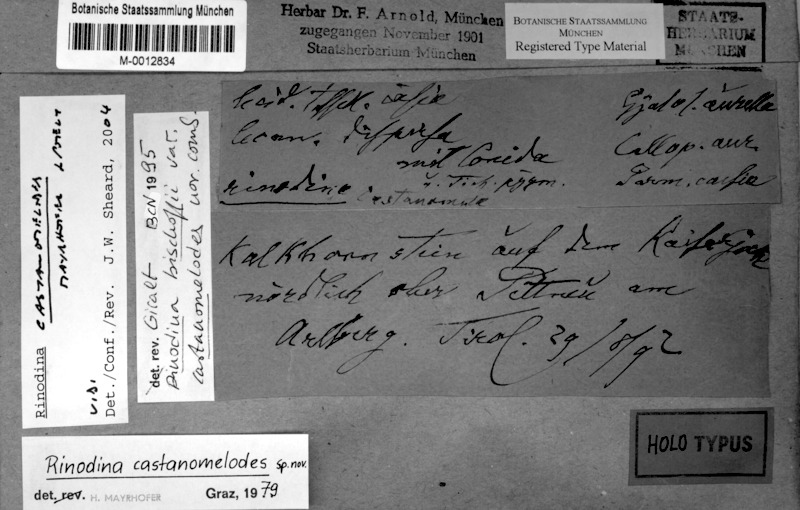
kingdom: Fungi
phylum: Ascomycota
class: Lecanoromycetes
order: Caliciales
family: Physciaceae
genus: Oxnerella
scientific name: Oxnerella castanomelodes
